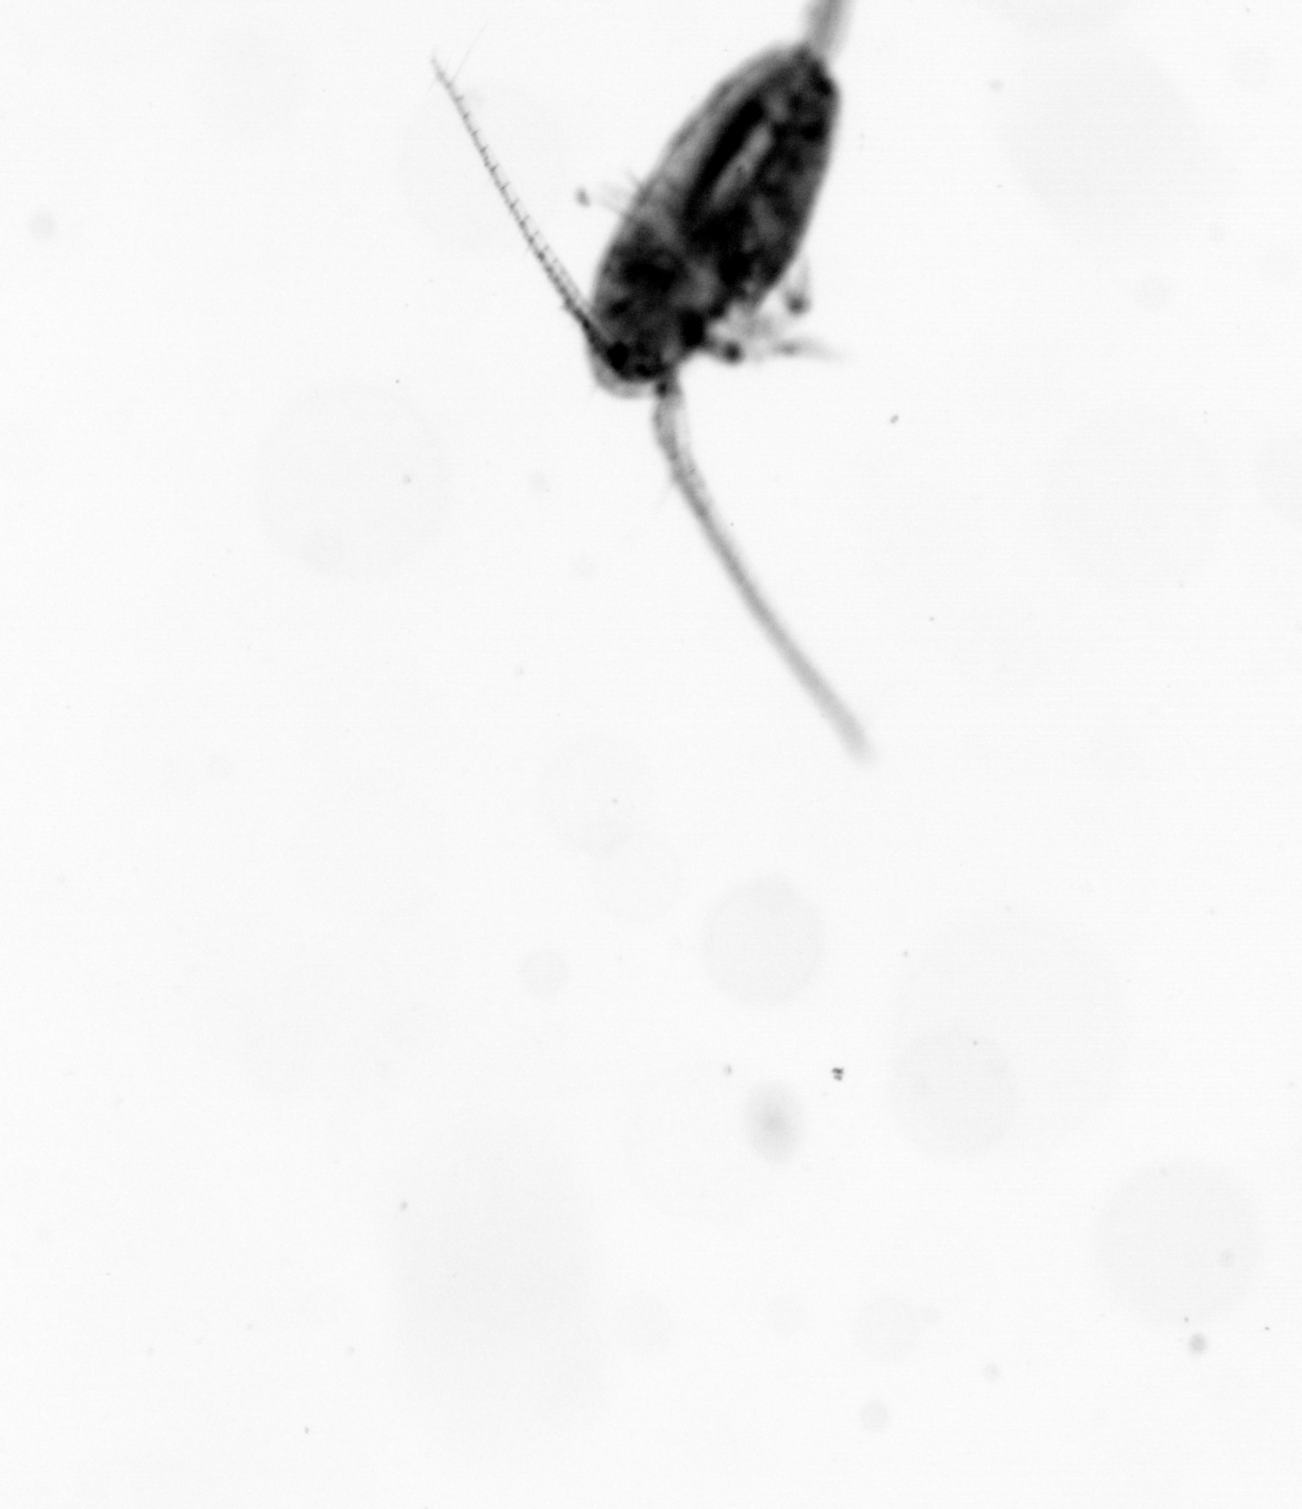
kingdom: Animalia
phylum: Arthropoda
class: Copepoda
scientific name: Copepoda
